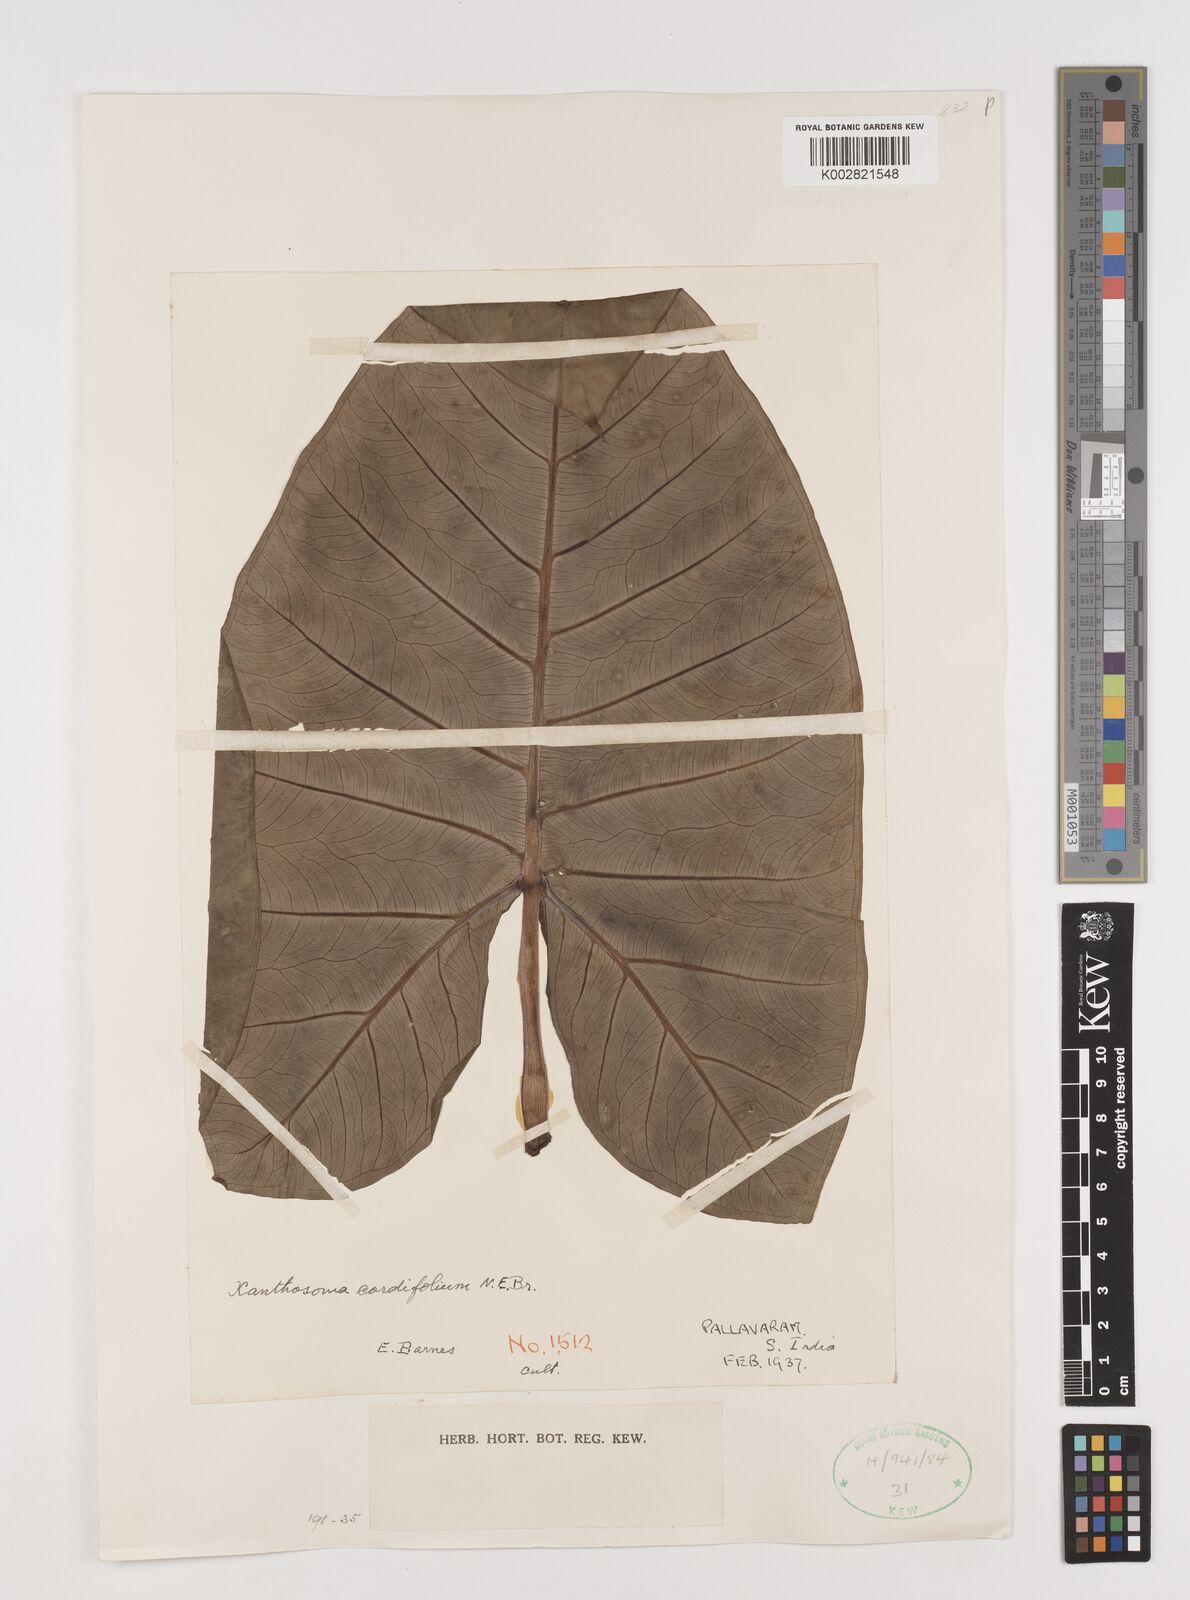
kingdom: Plantae
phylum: Tracheophyta
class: Liliopsida
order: Alismatales
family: Araceae
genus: Xanthosoma
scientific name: Xanthosoma cordifolium
